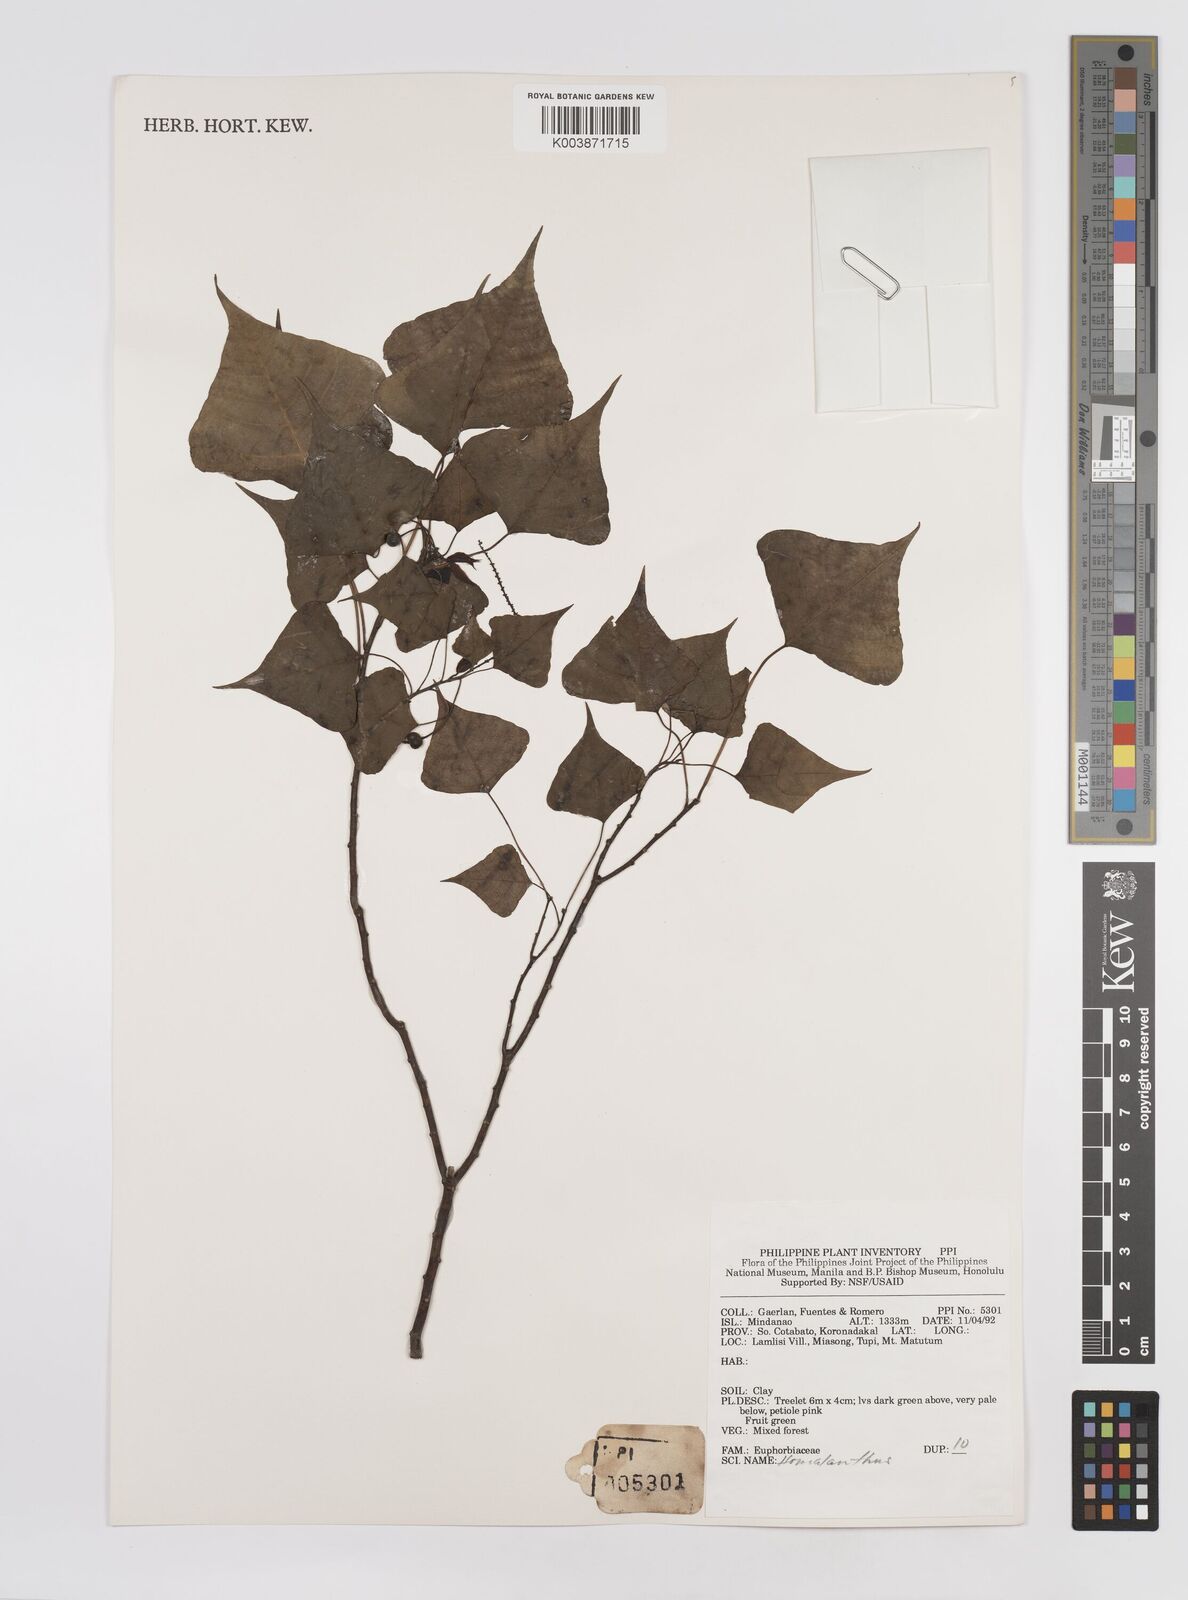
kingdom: Plantae
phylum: Tracheophyta
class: Magnoliopsida
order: Malpighiales
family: Euphorbiaceae
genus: Homalanthus
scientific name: Homalanthus populneus
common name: Spurge
